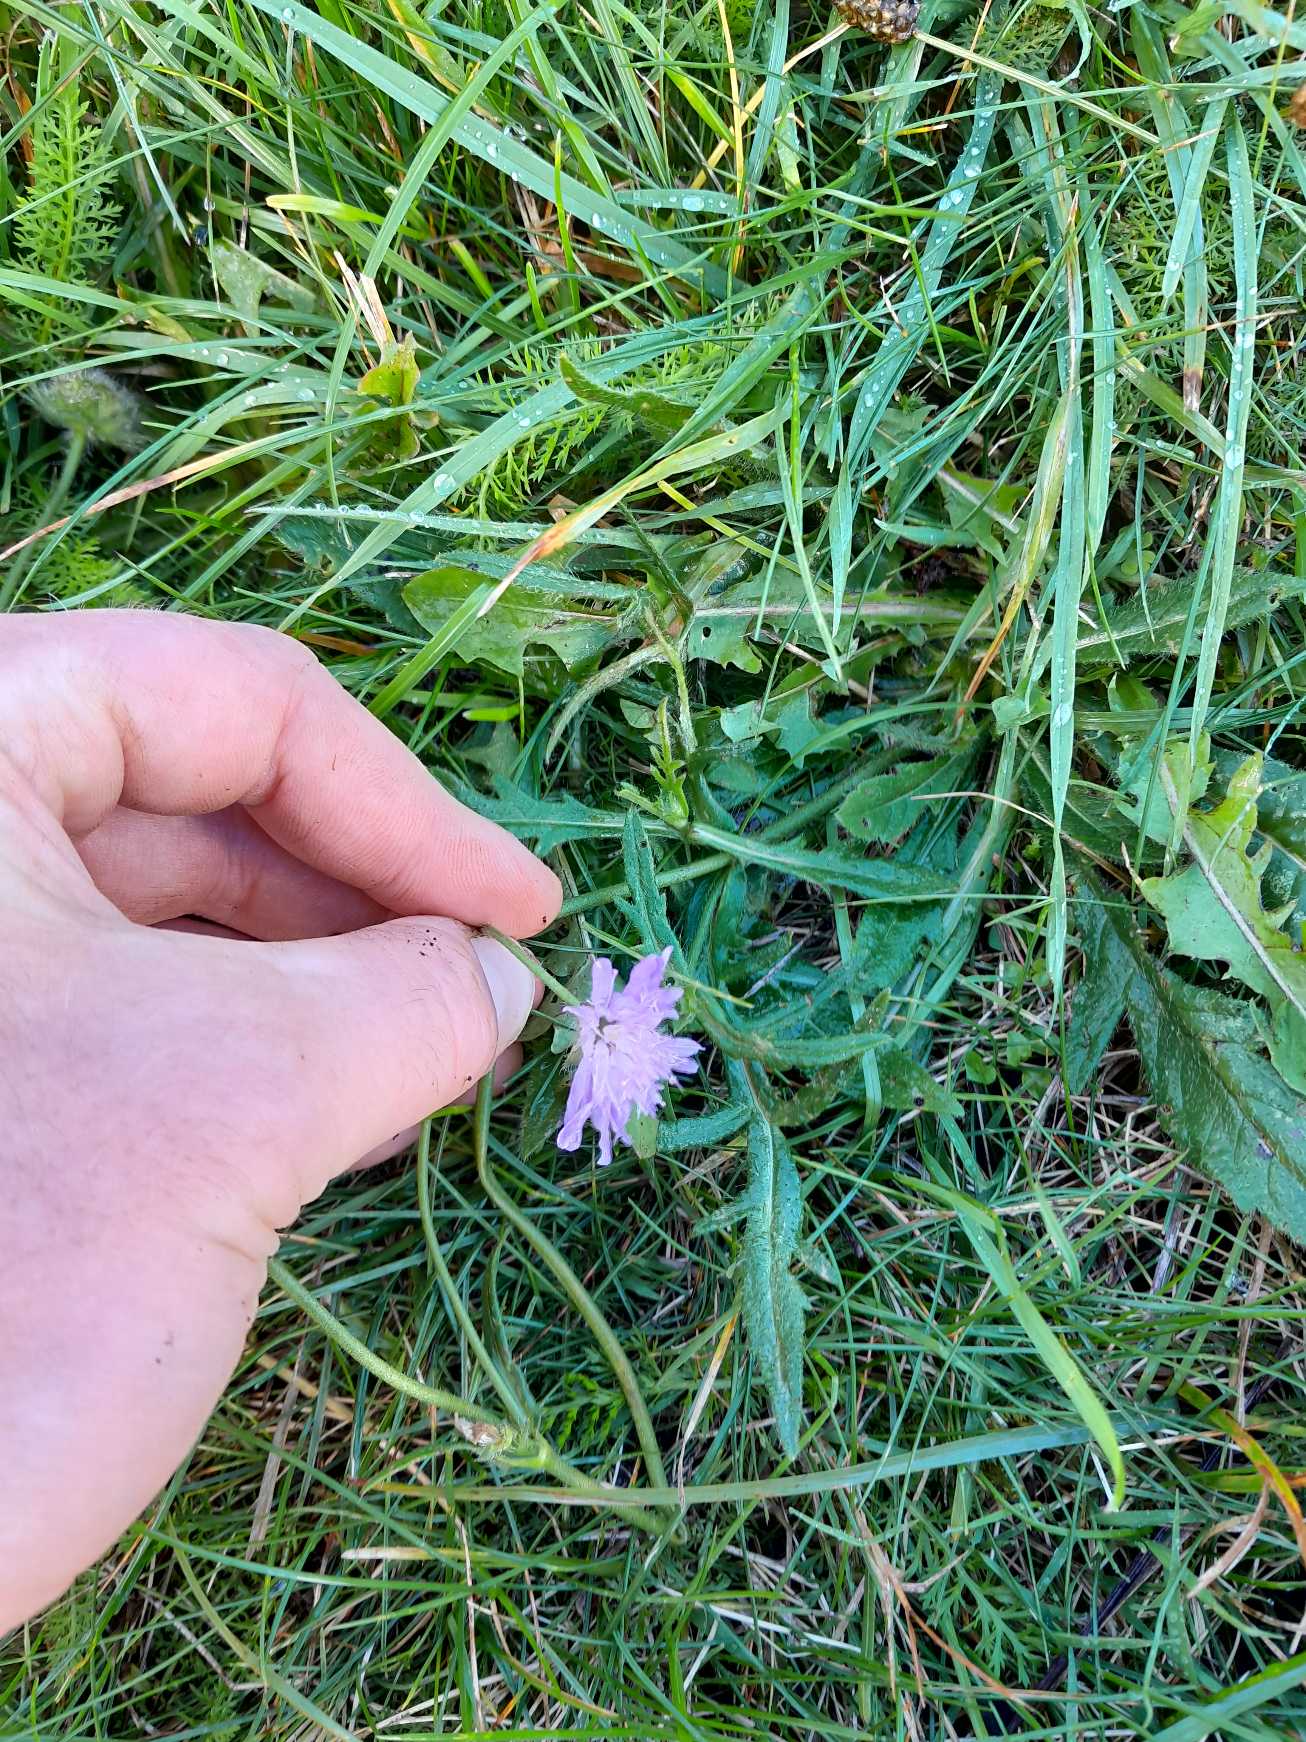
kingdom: Plantae
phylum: Tracheophyta
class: Magnoliopsida
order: Dipsacales
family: Caprifoliaceae
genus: Knautia
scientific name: Knautia arvensis
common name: Blåhat
